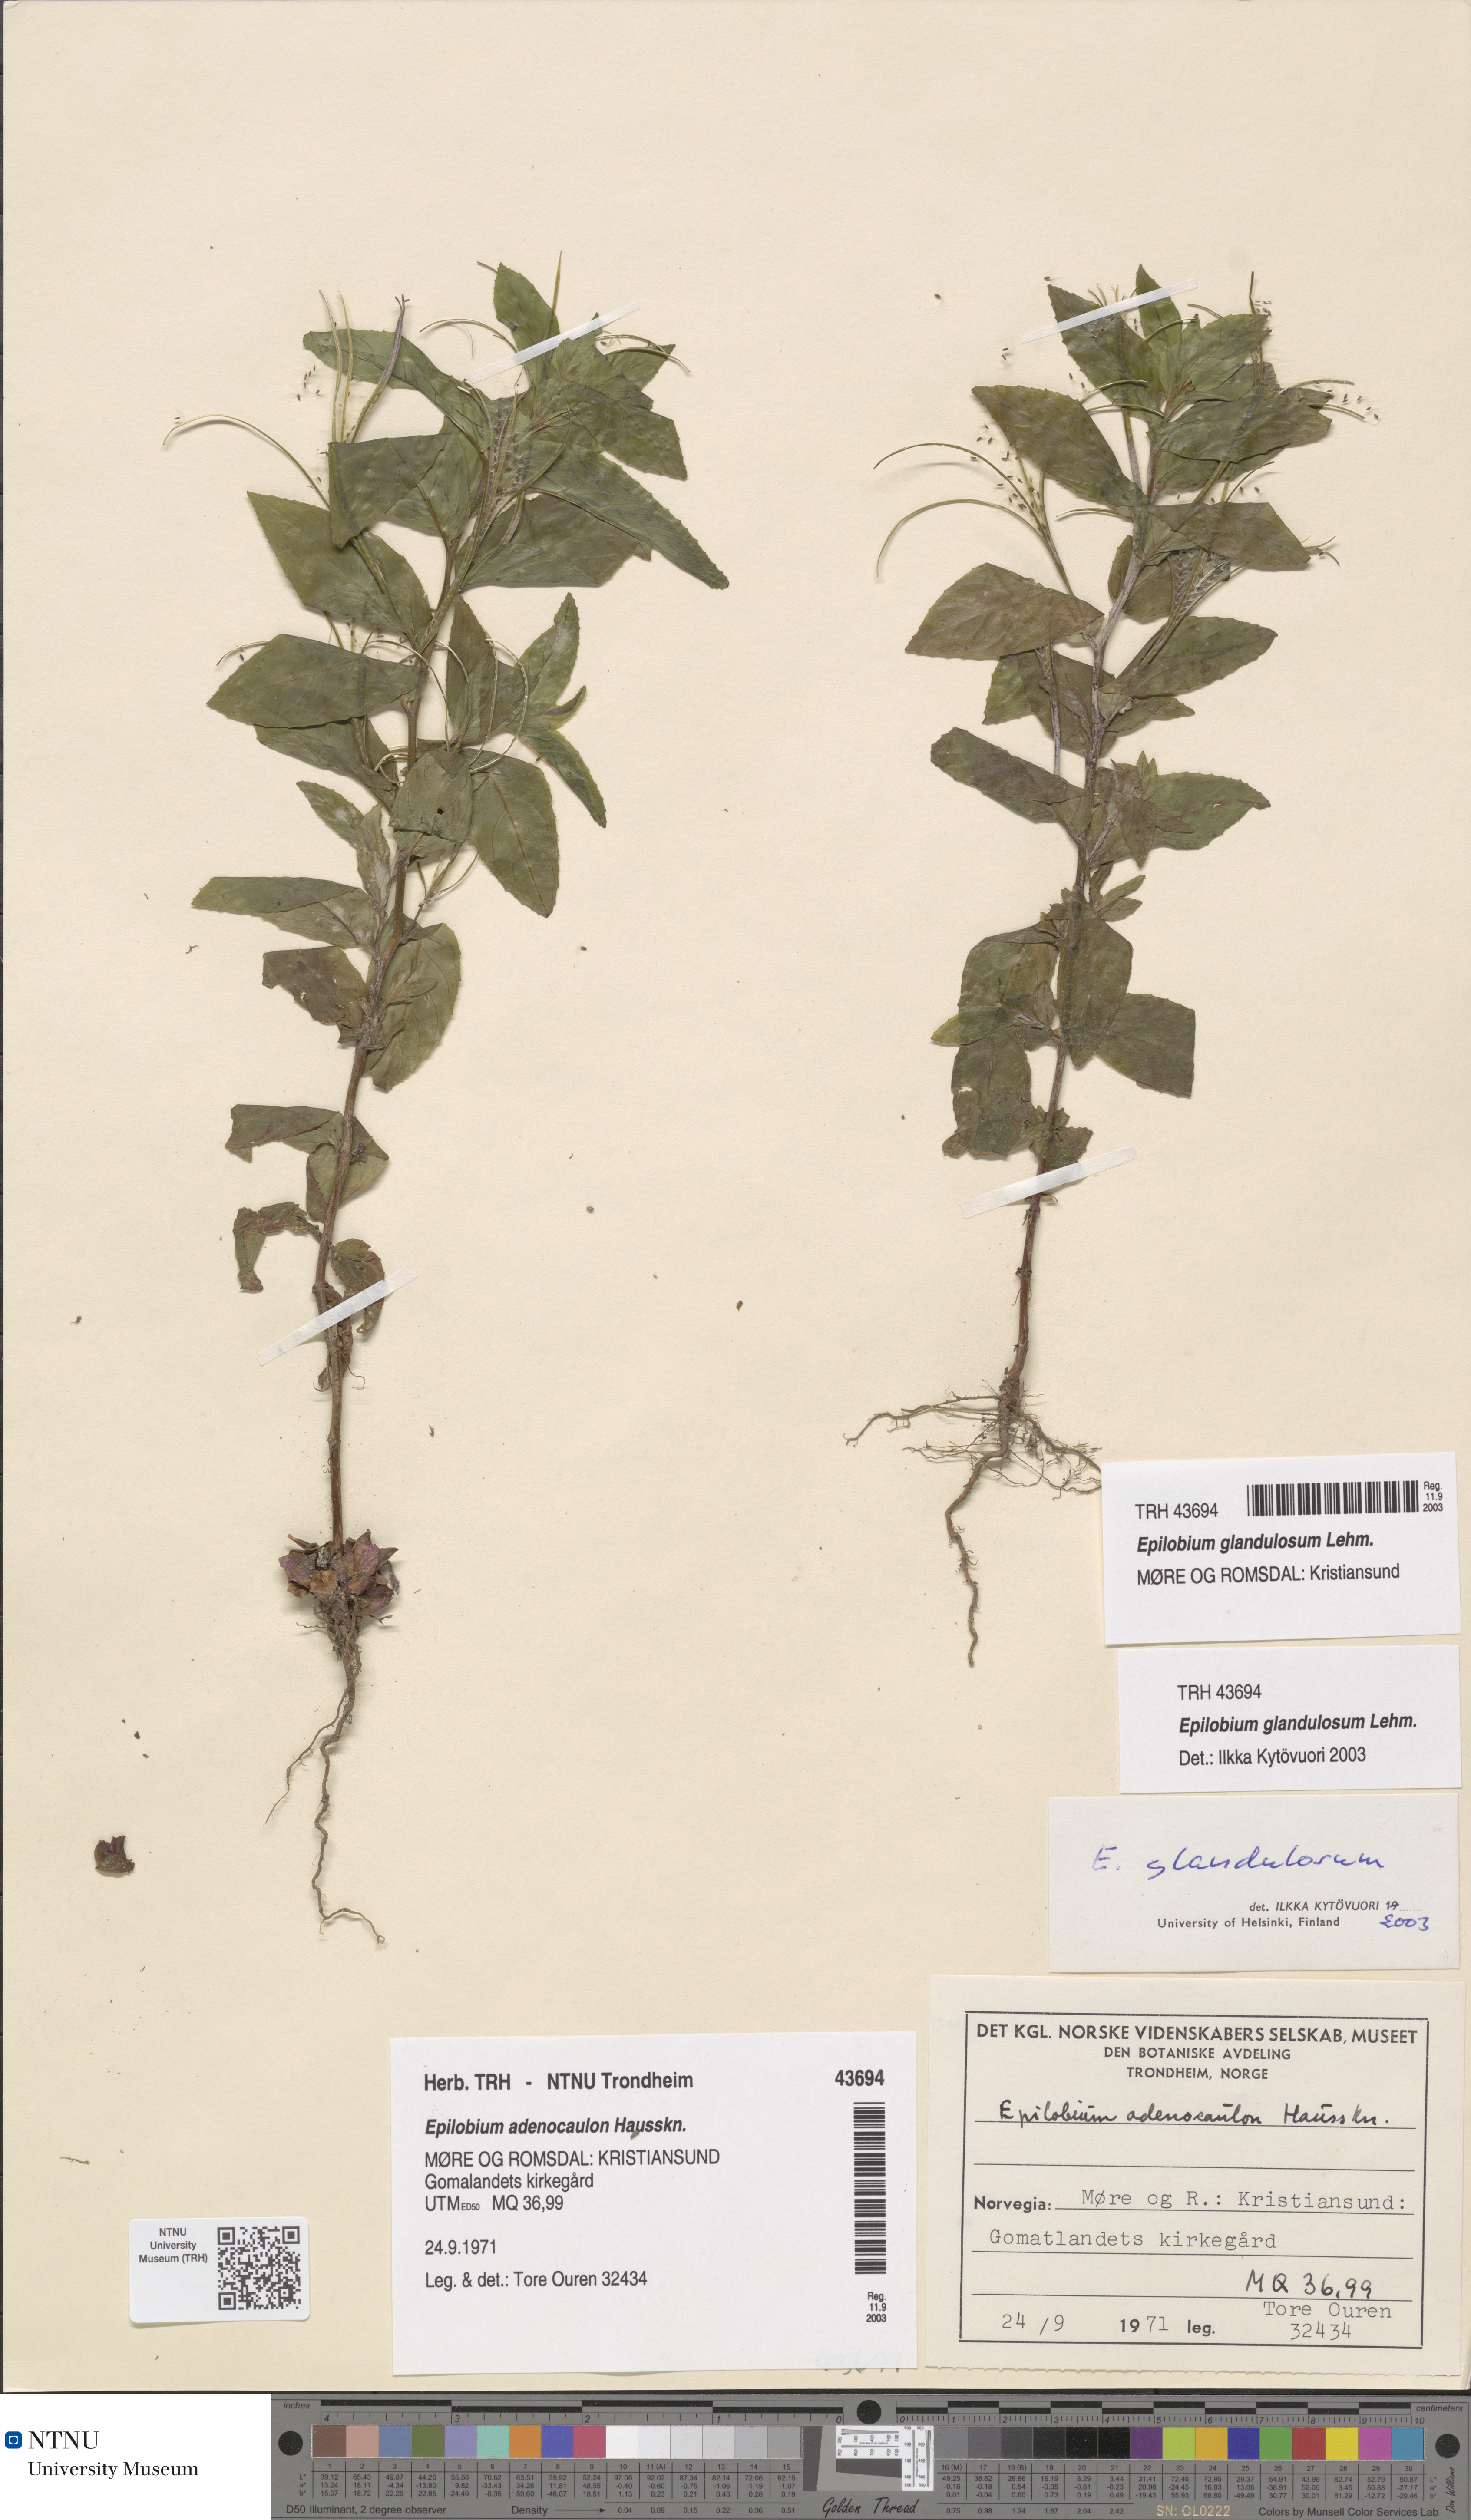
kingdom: Plantae
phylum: Tracheophyta
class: Magnoliopsida
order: Myrtales
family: Onagraceae
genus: Epilobium
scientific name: Epilobium ciliatum
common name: American willowherb
